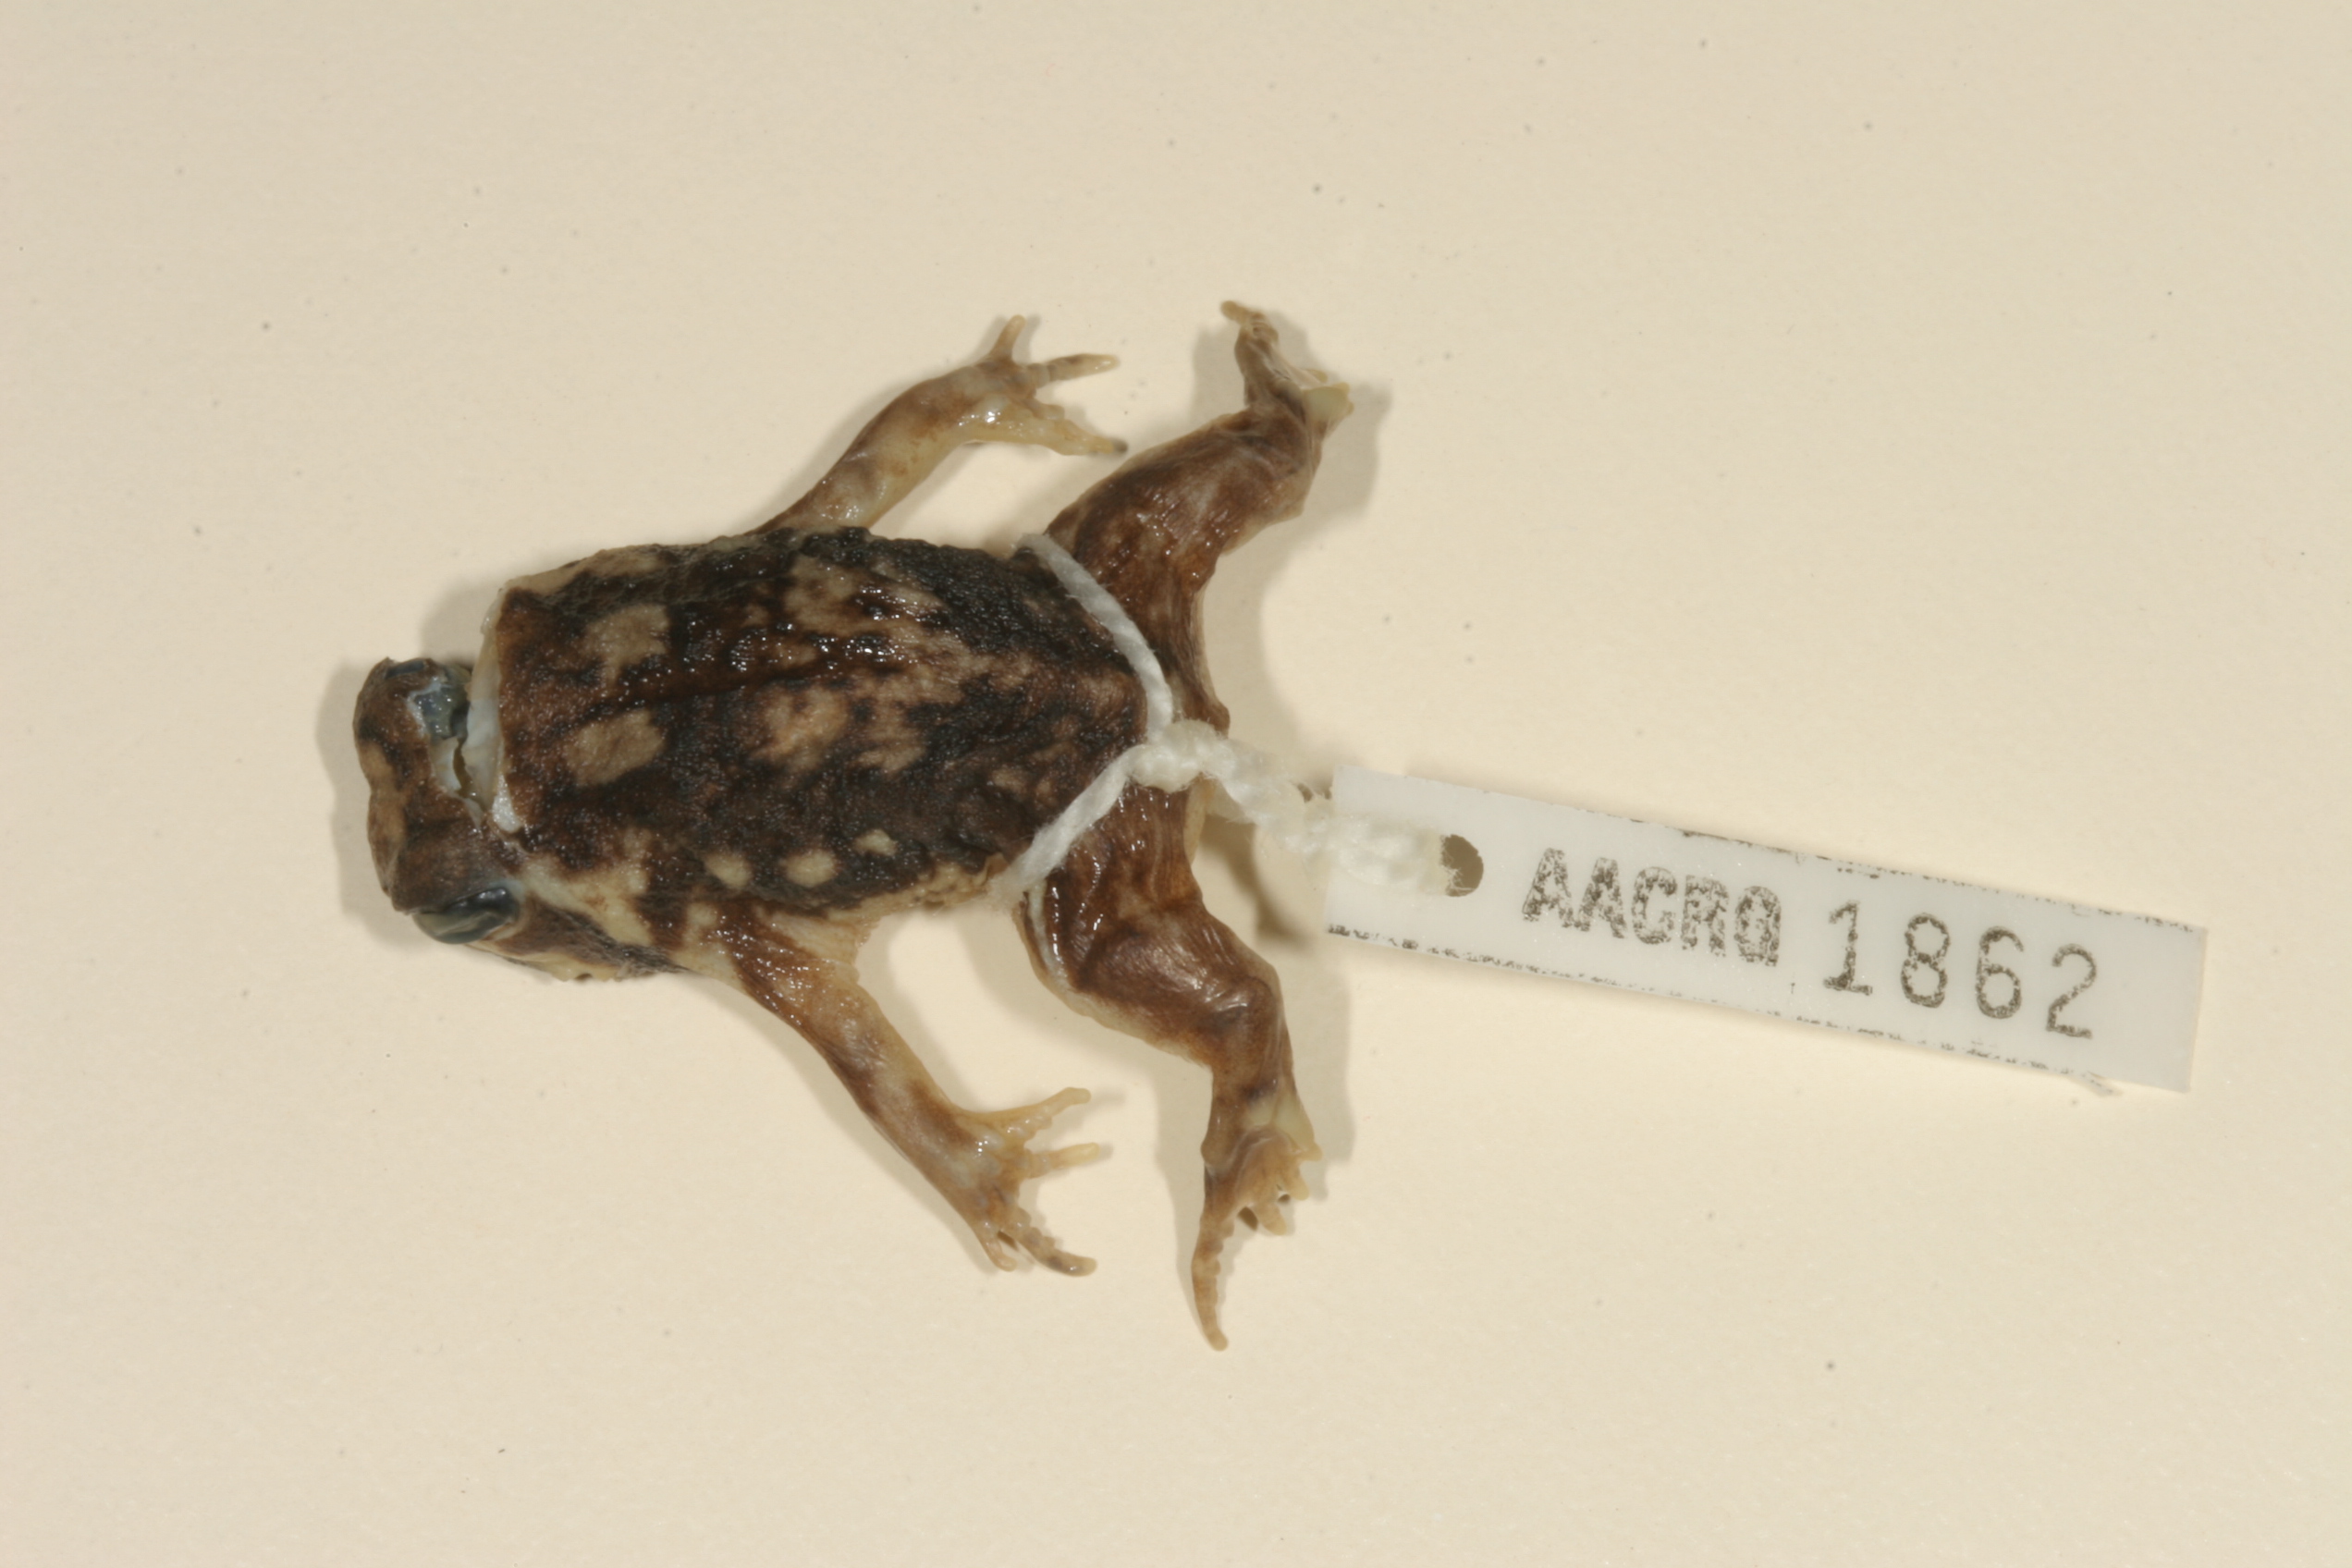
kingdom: Animalia
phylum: Chordata
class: Amphibia
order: Anura
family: Brevicipitidae
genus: Breviceps
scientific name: Breviceps adspersus
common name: Common rain frog
